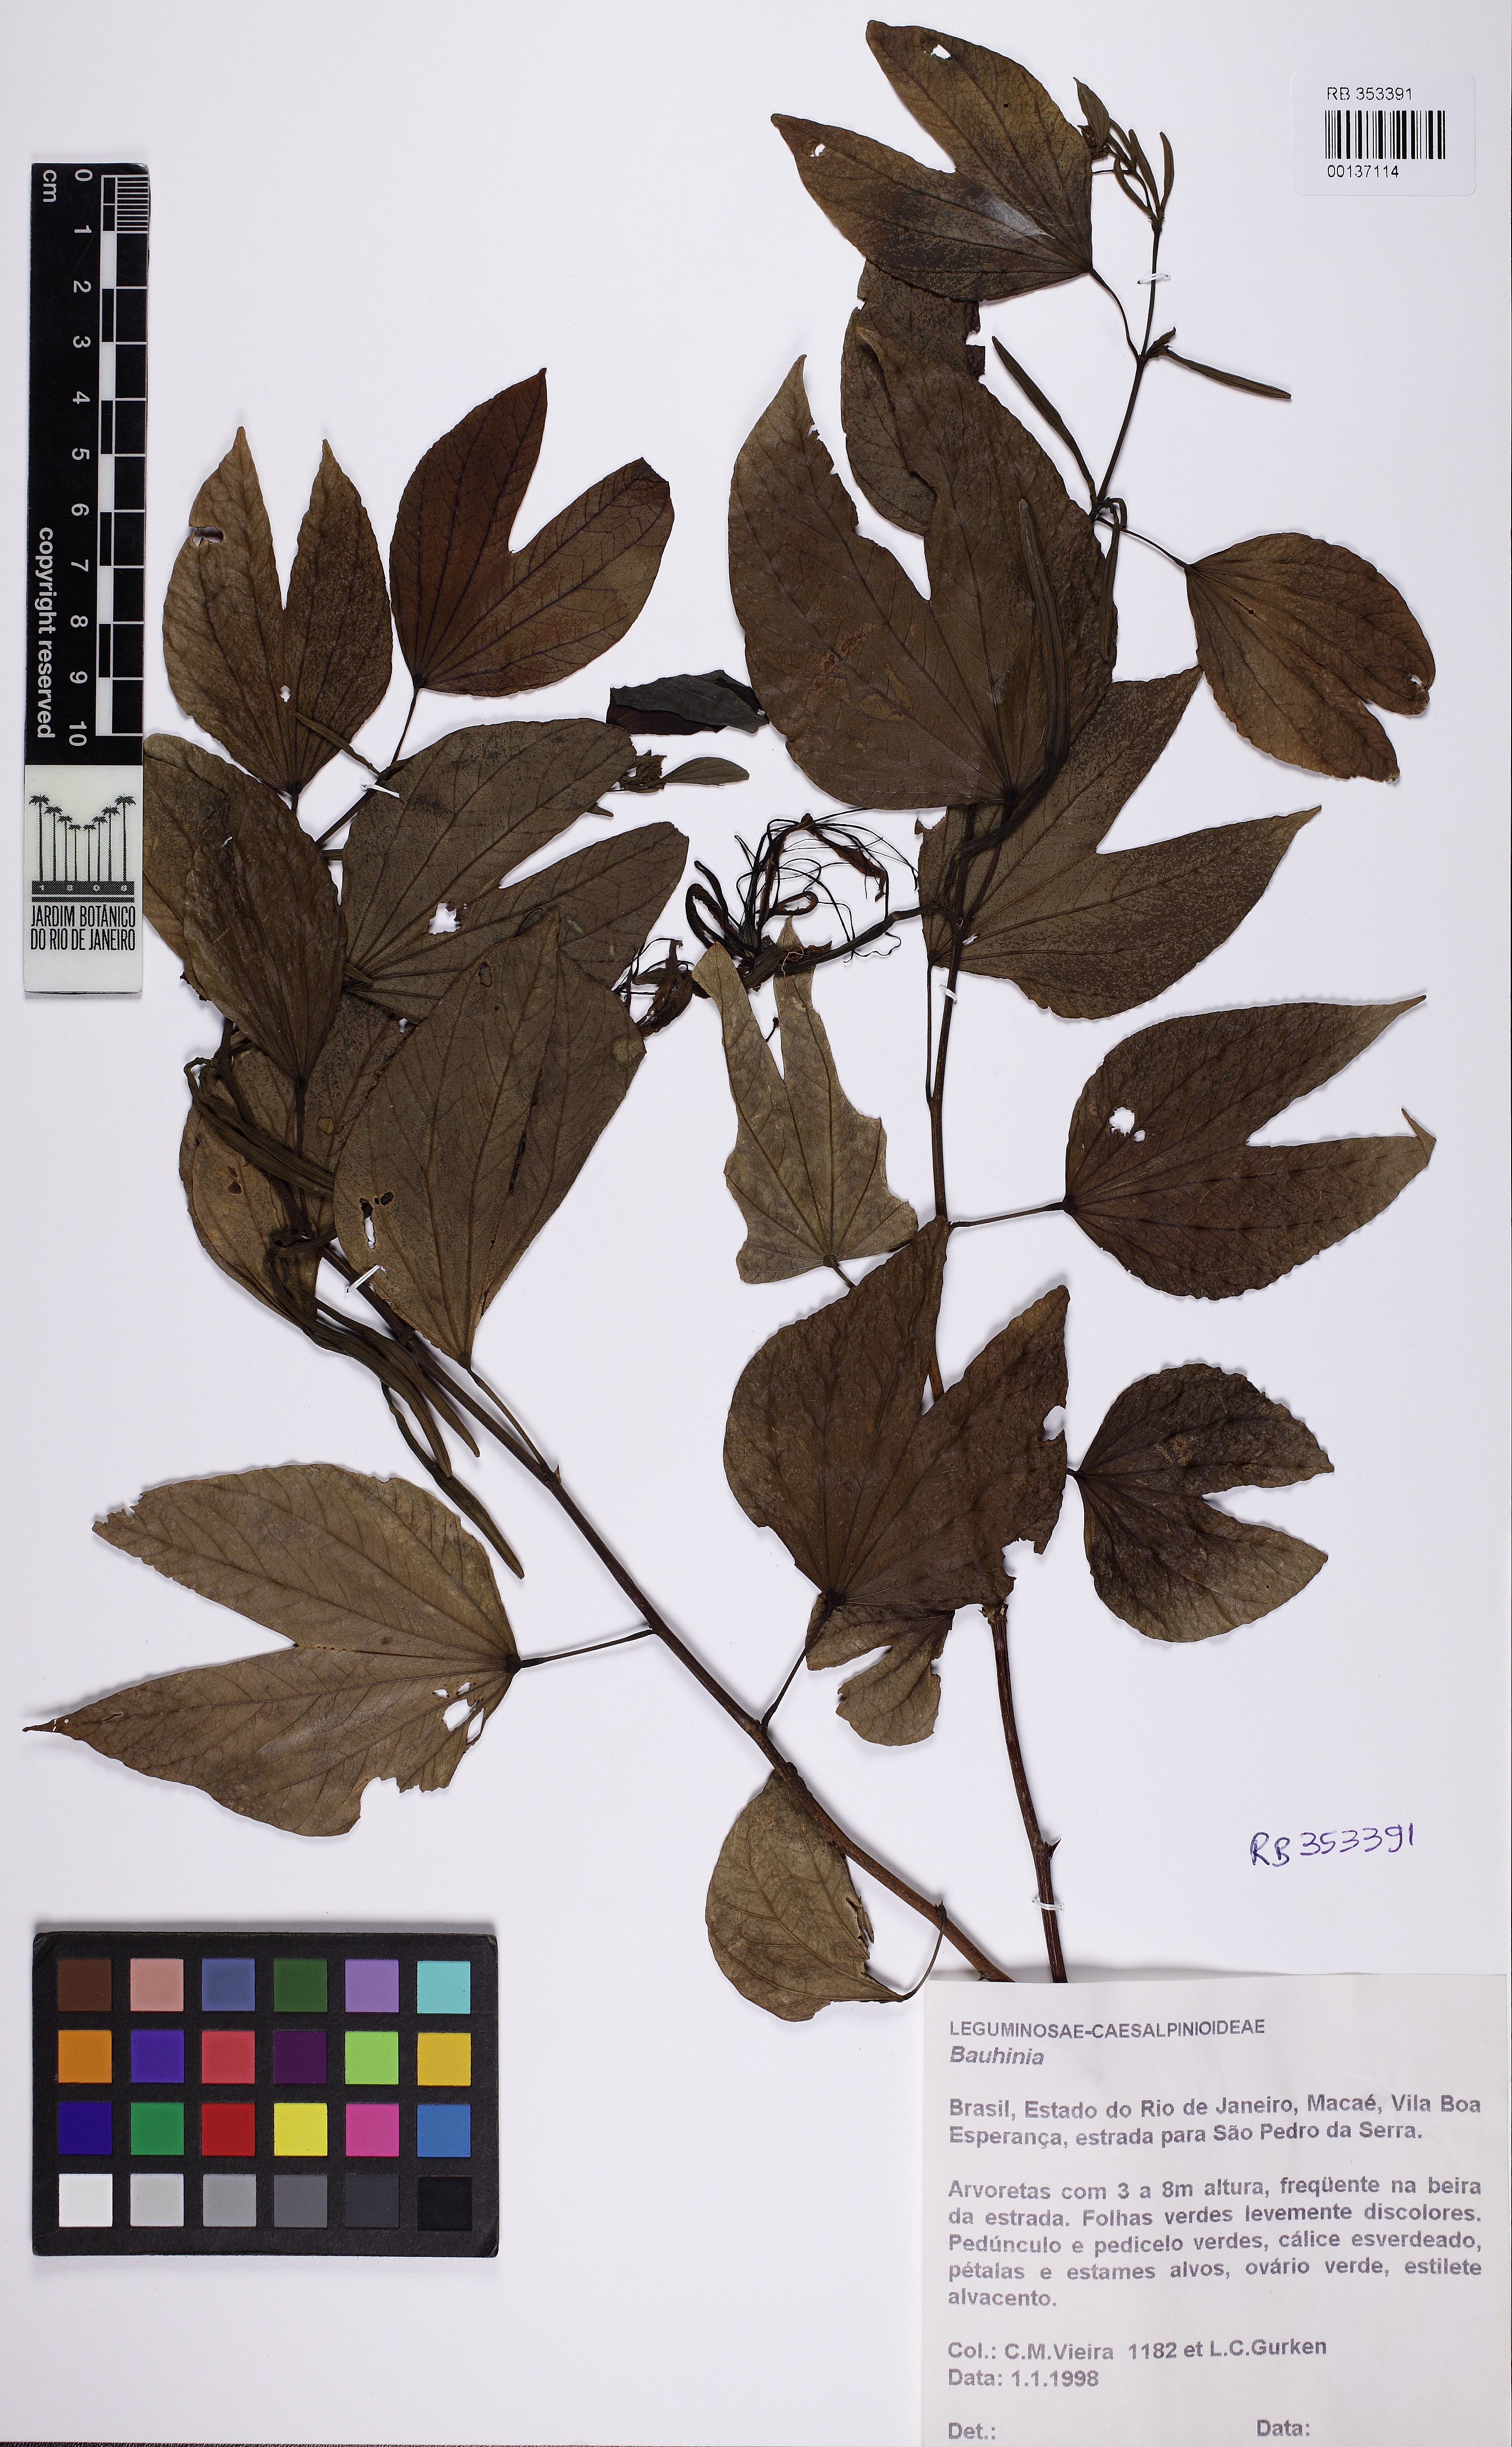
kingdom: Plantae
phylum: Tracheophyta
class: Magnoliopsida
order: Fabales
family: Fabaceae
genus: Bauhinia
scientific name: Bauhinia
